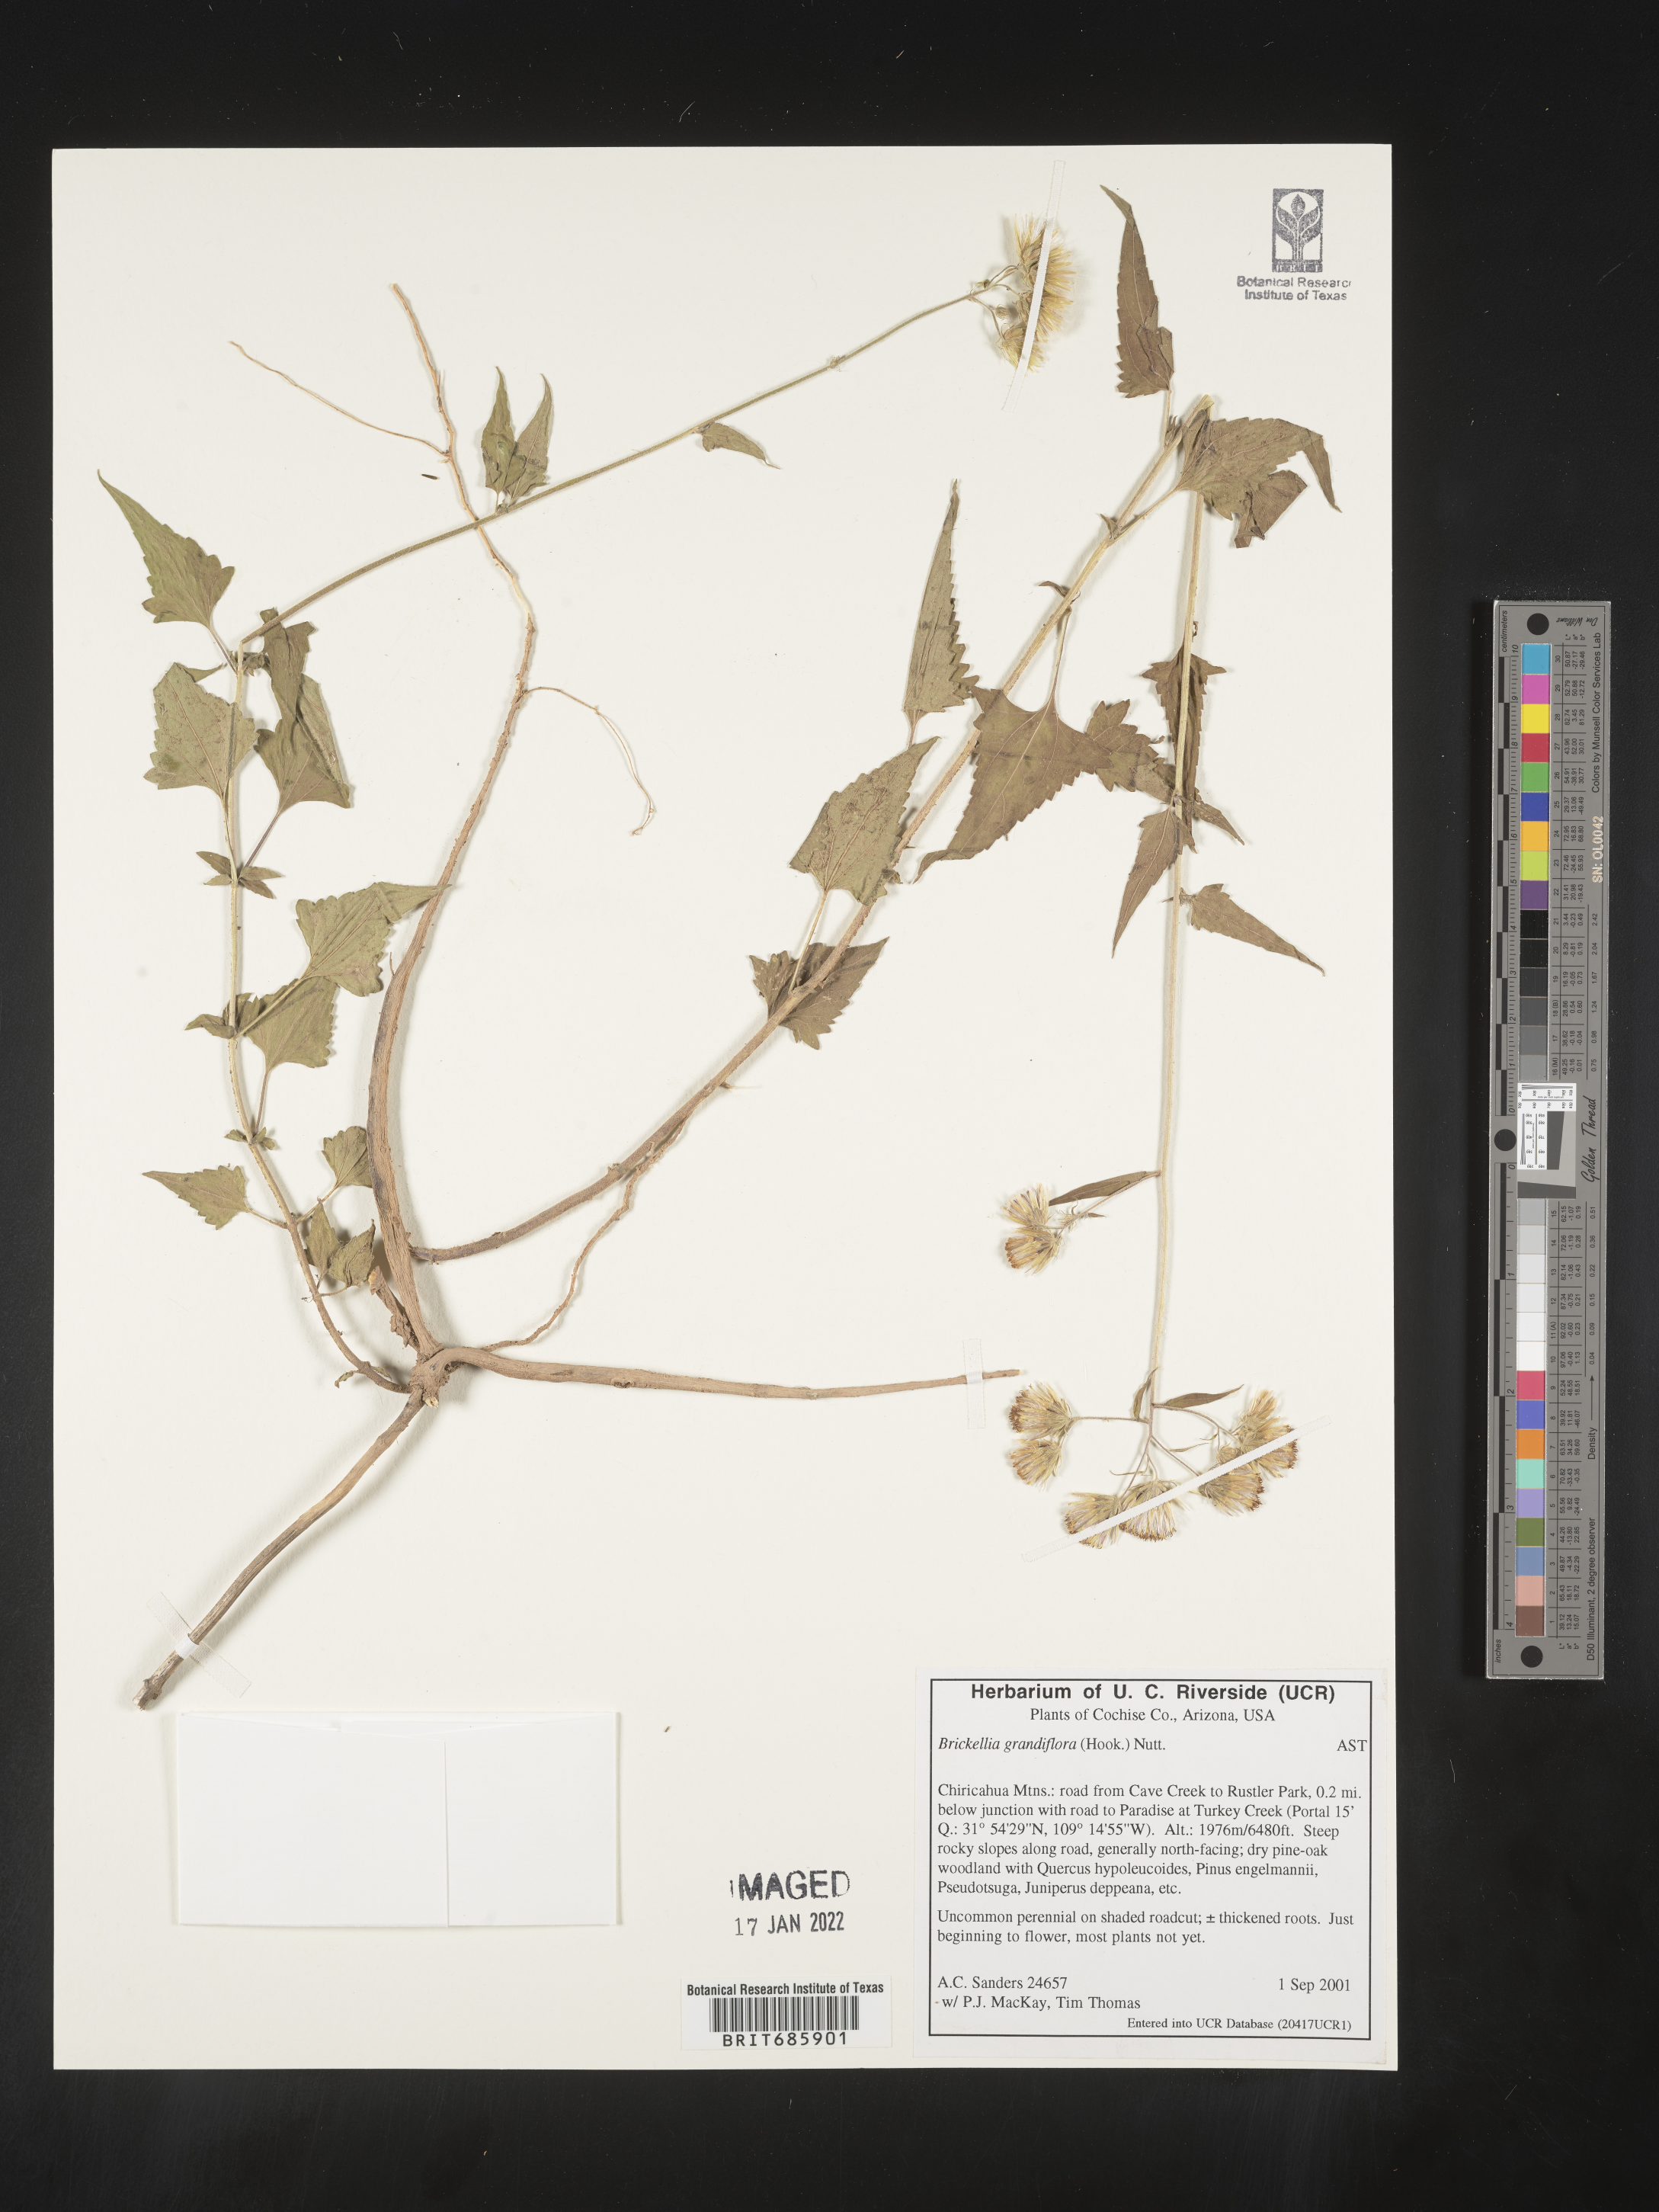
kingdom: Plantae
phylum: Tracheophyta
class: Magnoliopsida
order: Asterales
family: Asteraceae
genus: Brickellia
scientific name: Brickellia grandiflora
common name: Large-flowered brickellia
